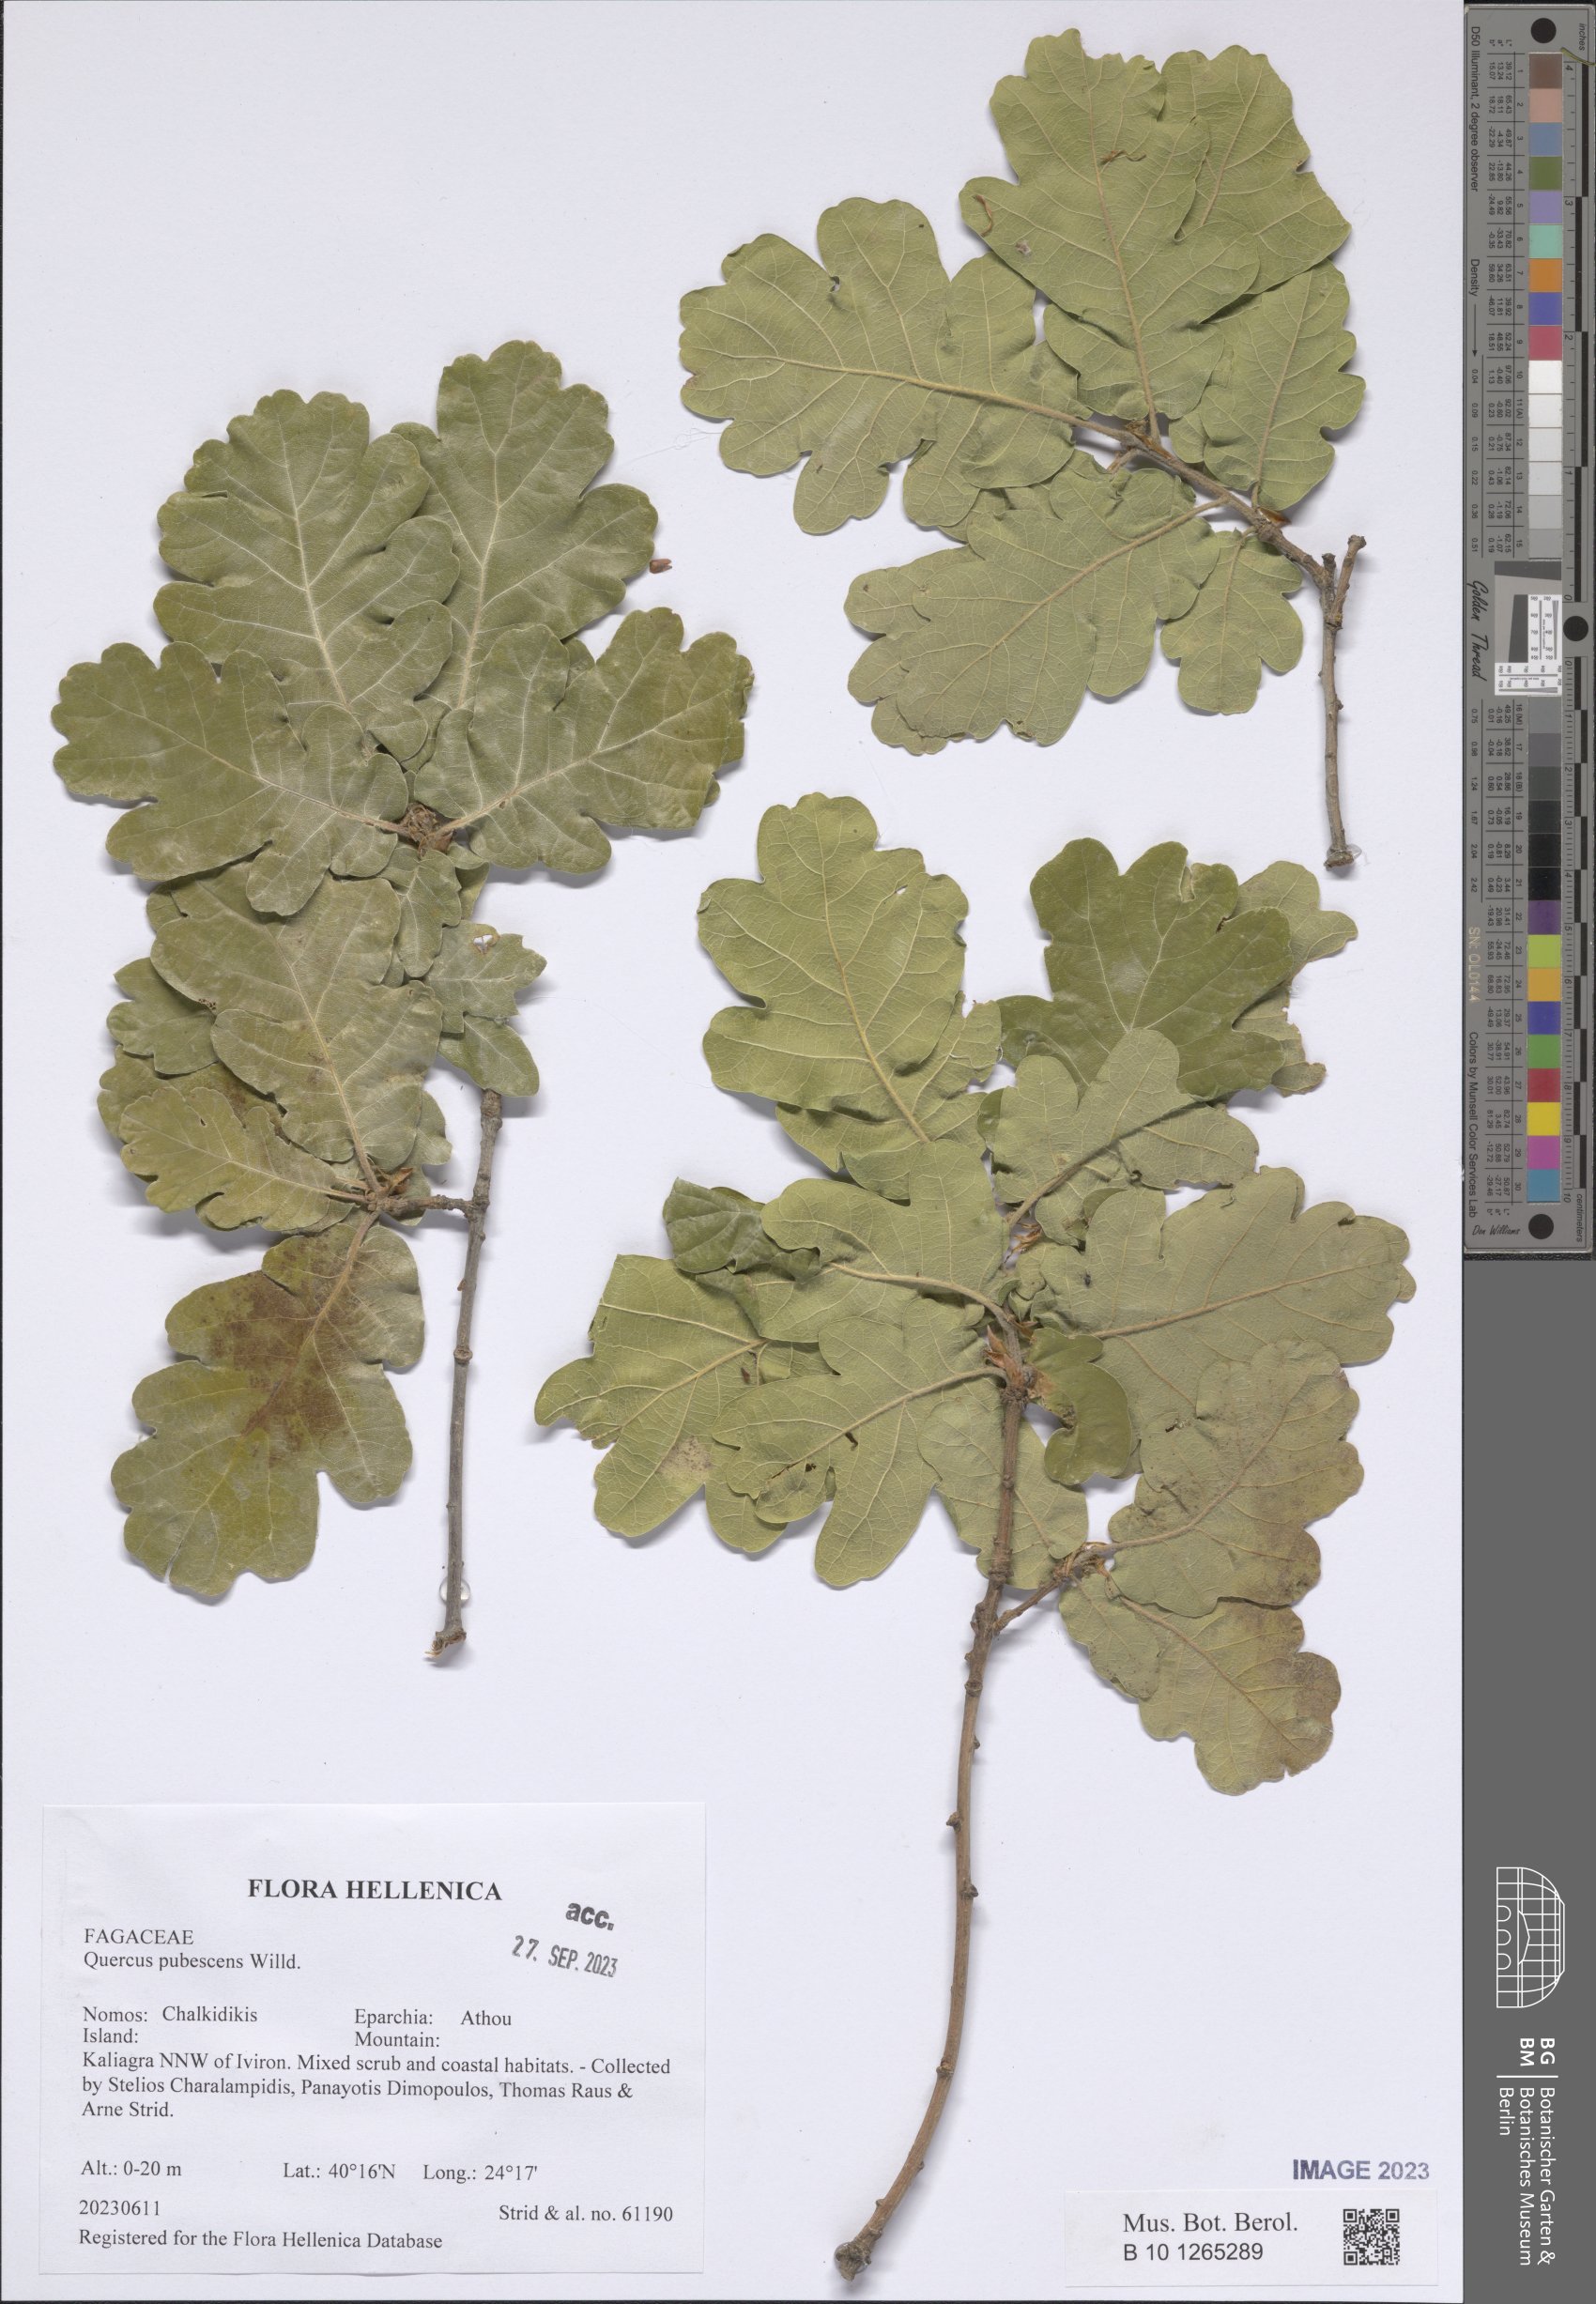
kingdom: Plantae
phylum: Tracheophyta
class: Magnoliopsida
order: Fagales
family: Fagaceae
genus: Quercus
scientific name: Quercus pubescens
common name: Downy oak
